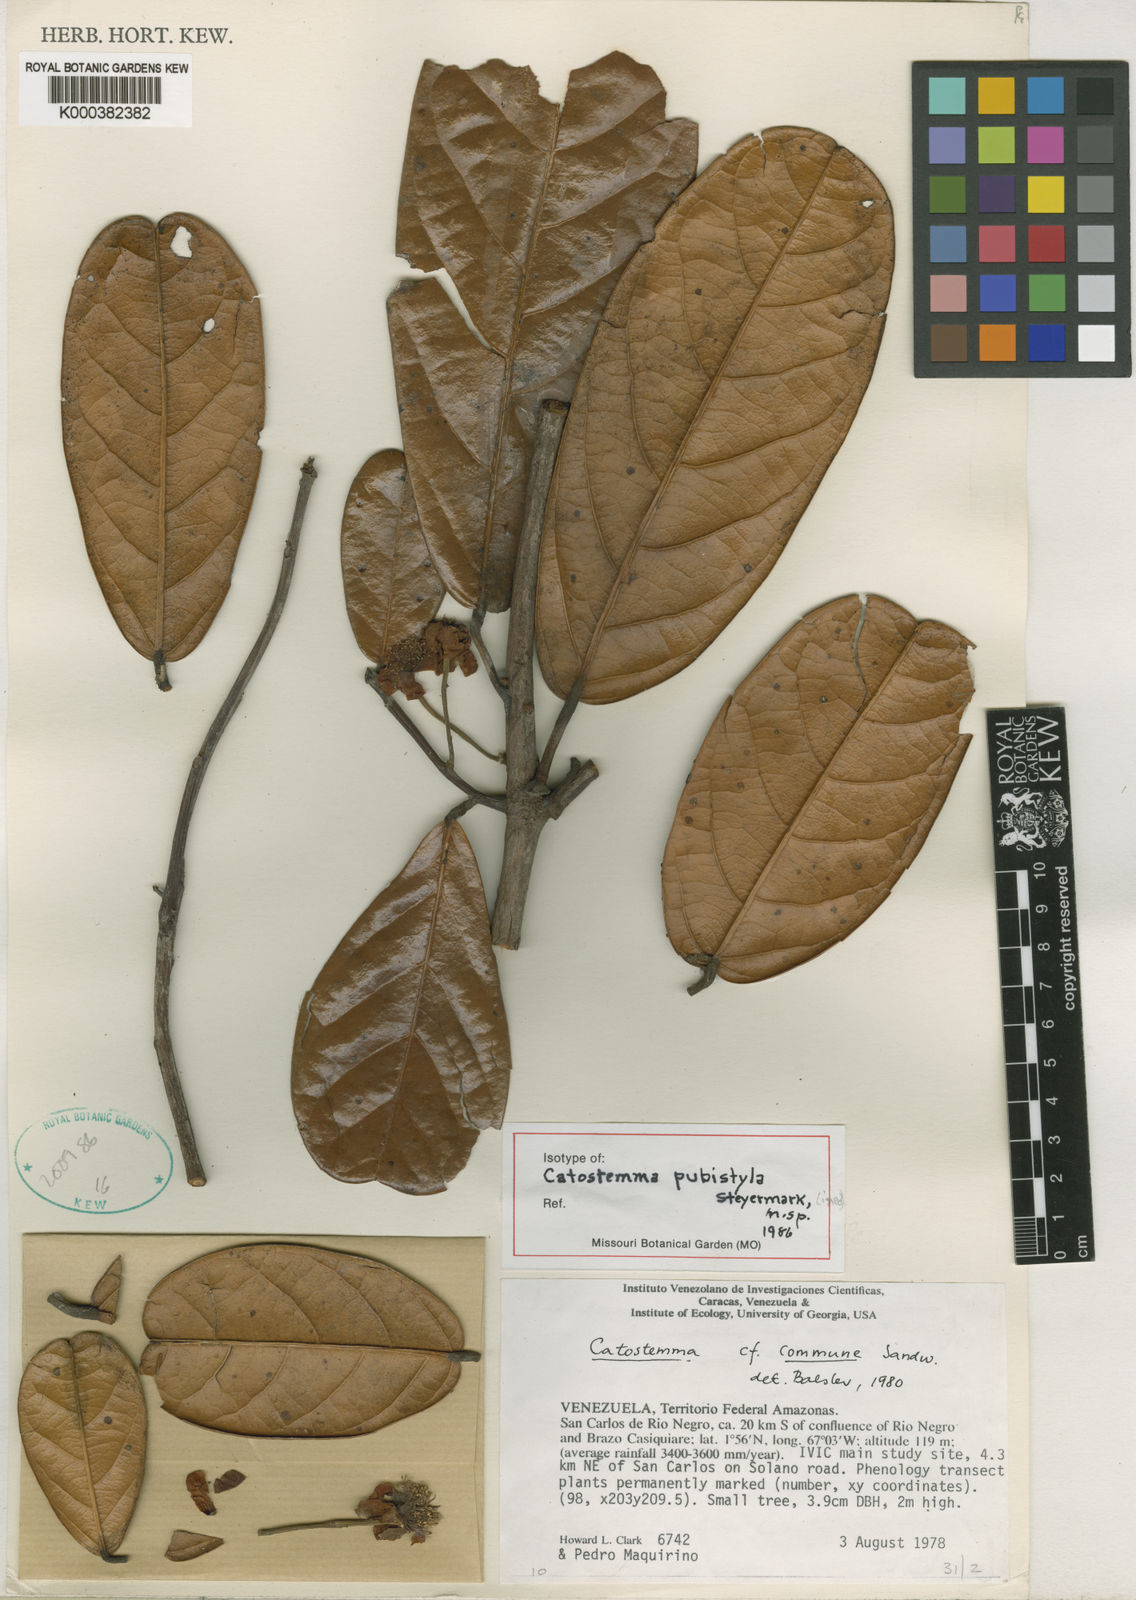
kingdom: Plantae
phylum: Tracheophyta
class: Magnoliopsida
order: Malvales
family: Malvaceae
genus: Catostemma
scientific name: Catostemma sancarlosianum
